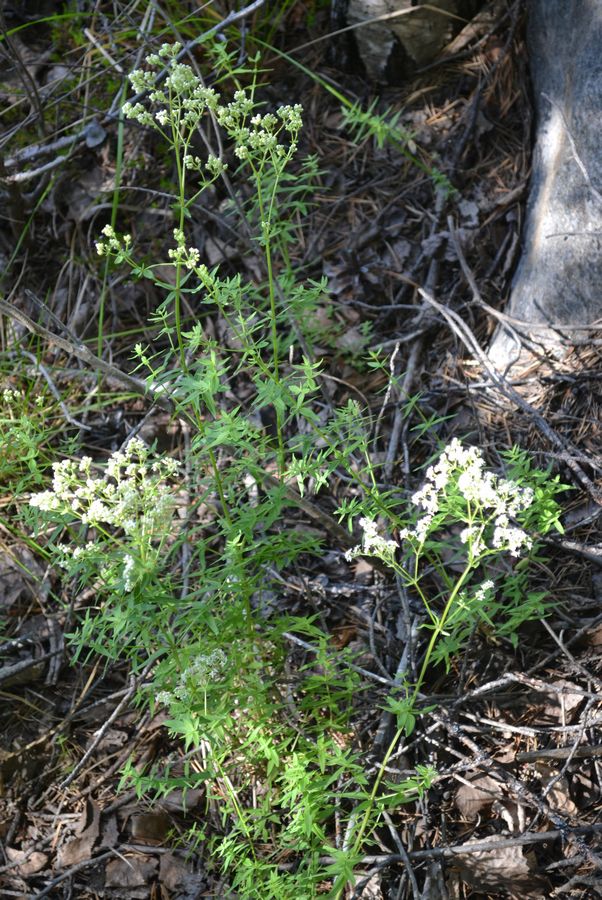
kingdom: Plantae
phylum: Tracheophyta
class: Magnoliopsida
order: Gentianales
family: Rubiaceae
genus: Galium
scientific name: Galium boreale
